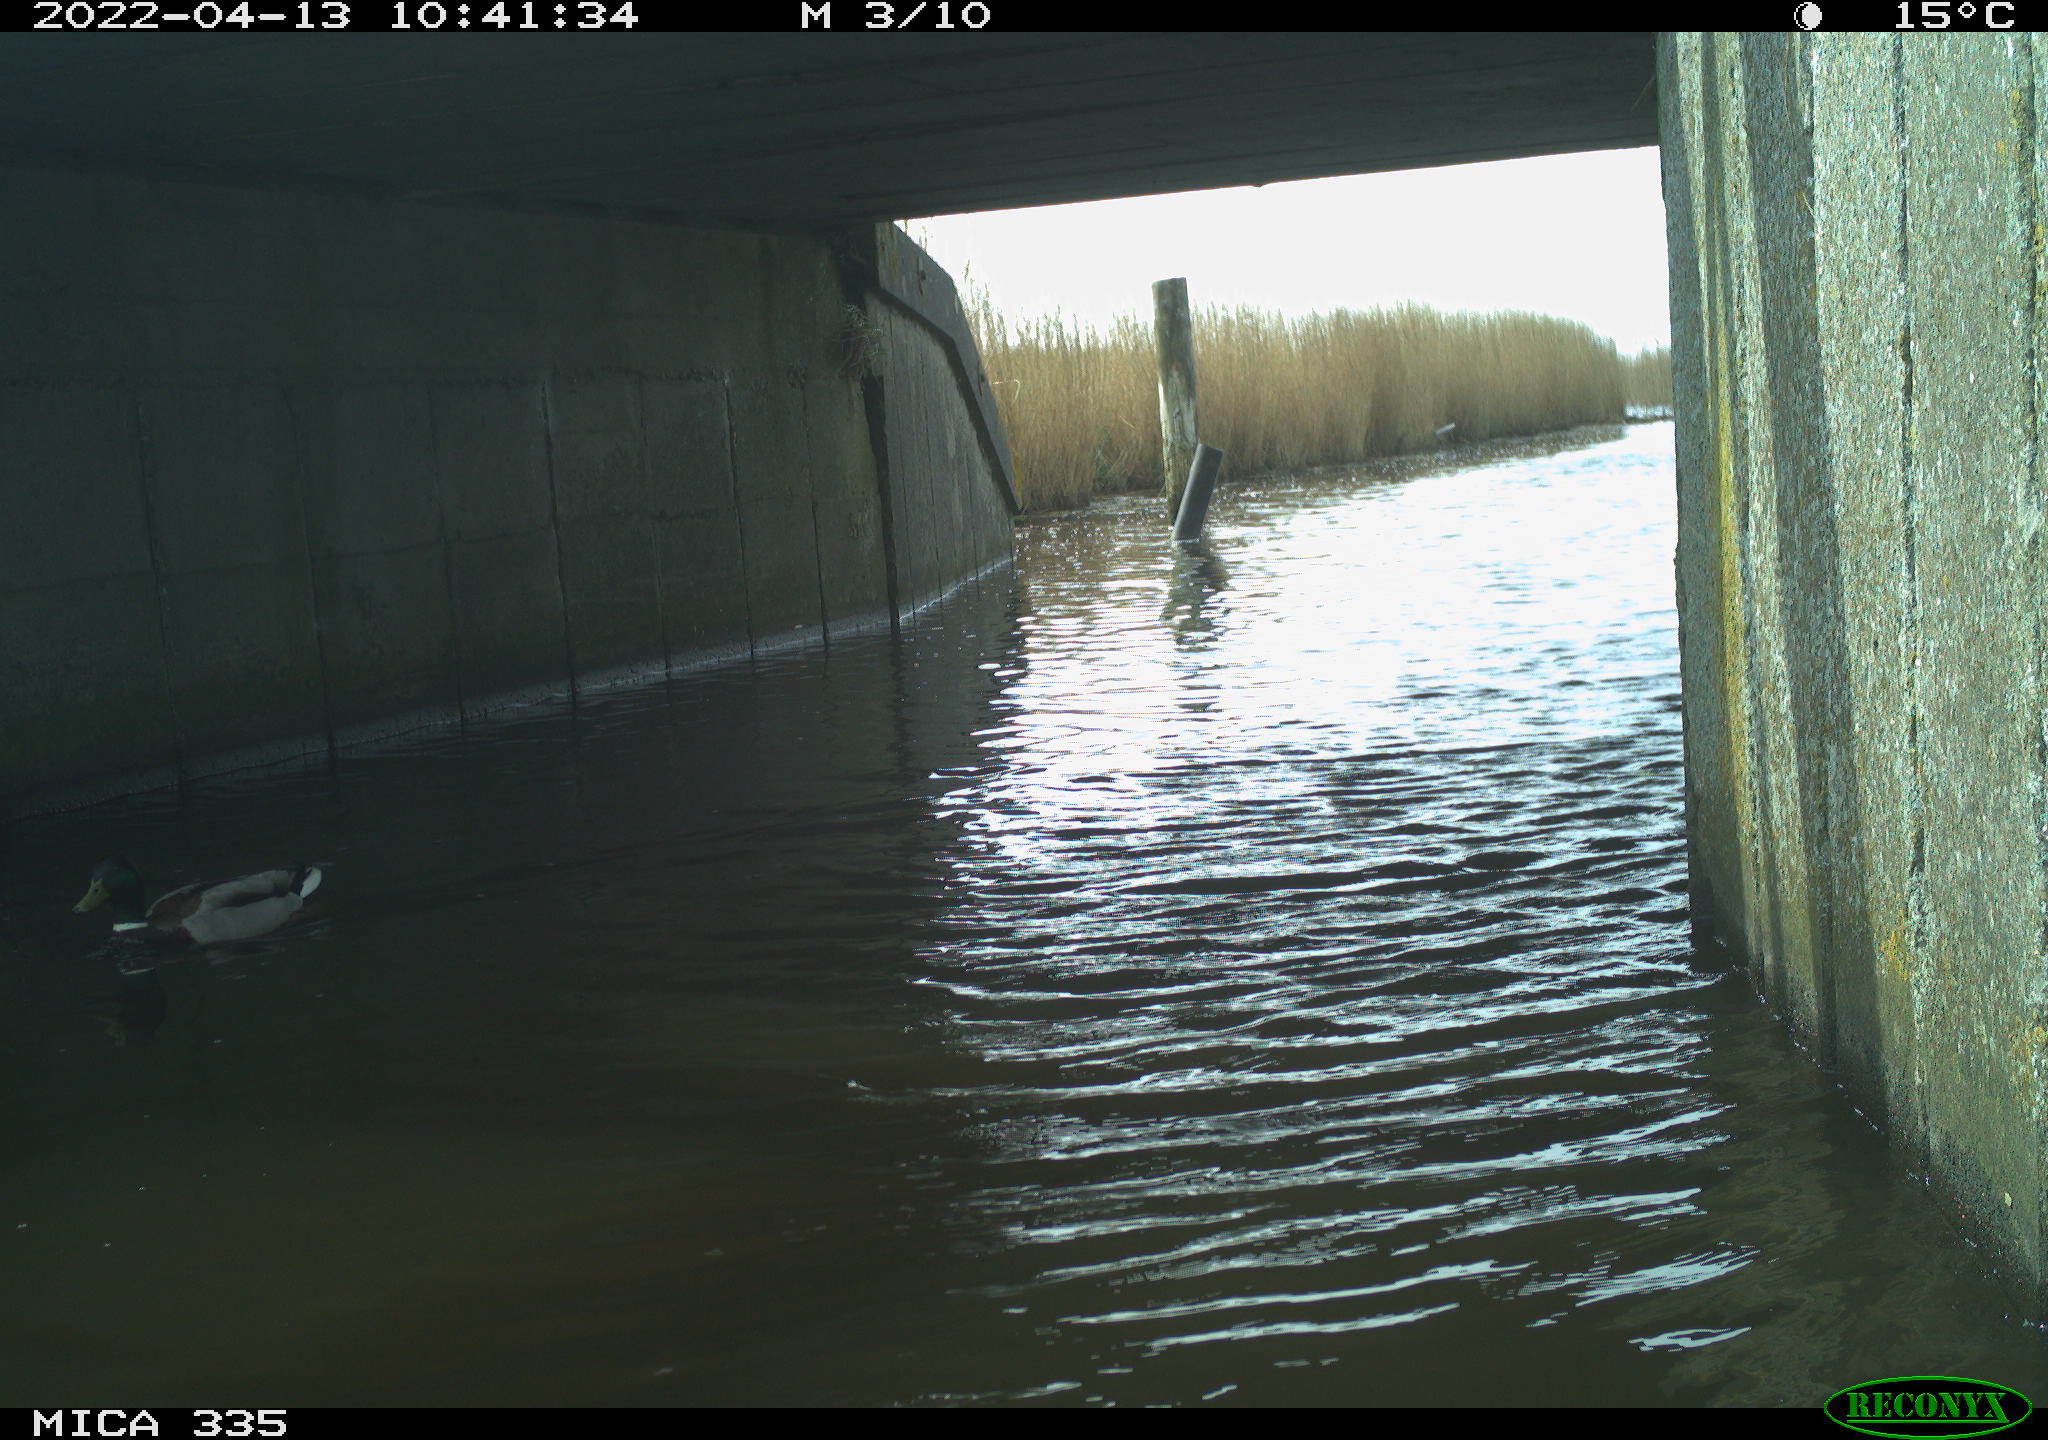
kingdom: Animalia
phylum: Chordata
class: Aves
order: Anseriformes
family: Anatidae
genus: Anas
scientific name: Anas platyrhynchos
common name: Mallard
